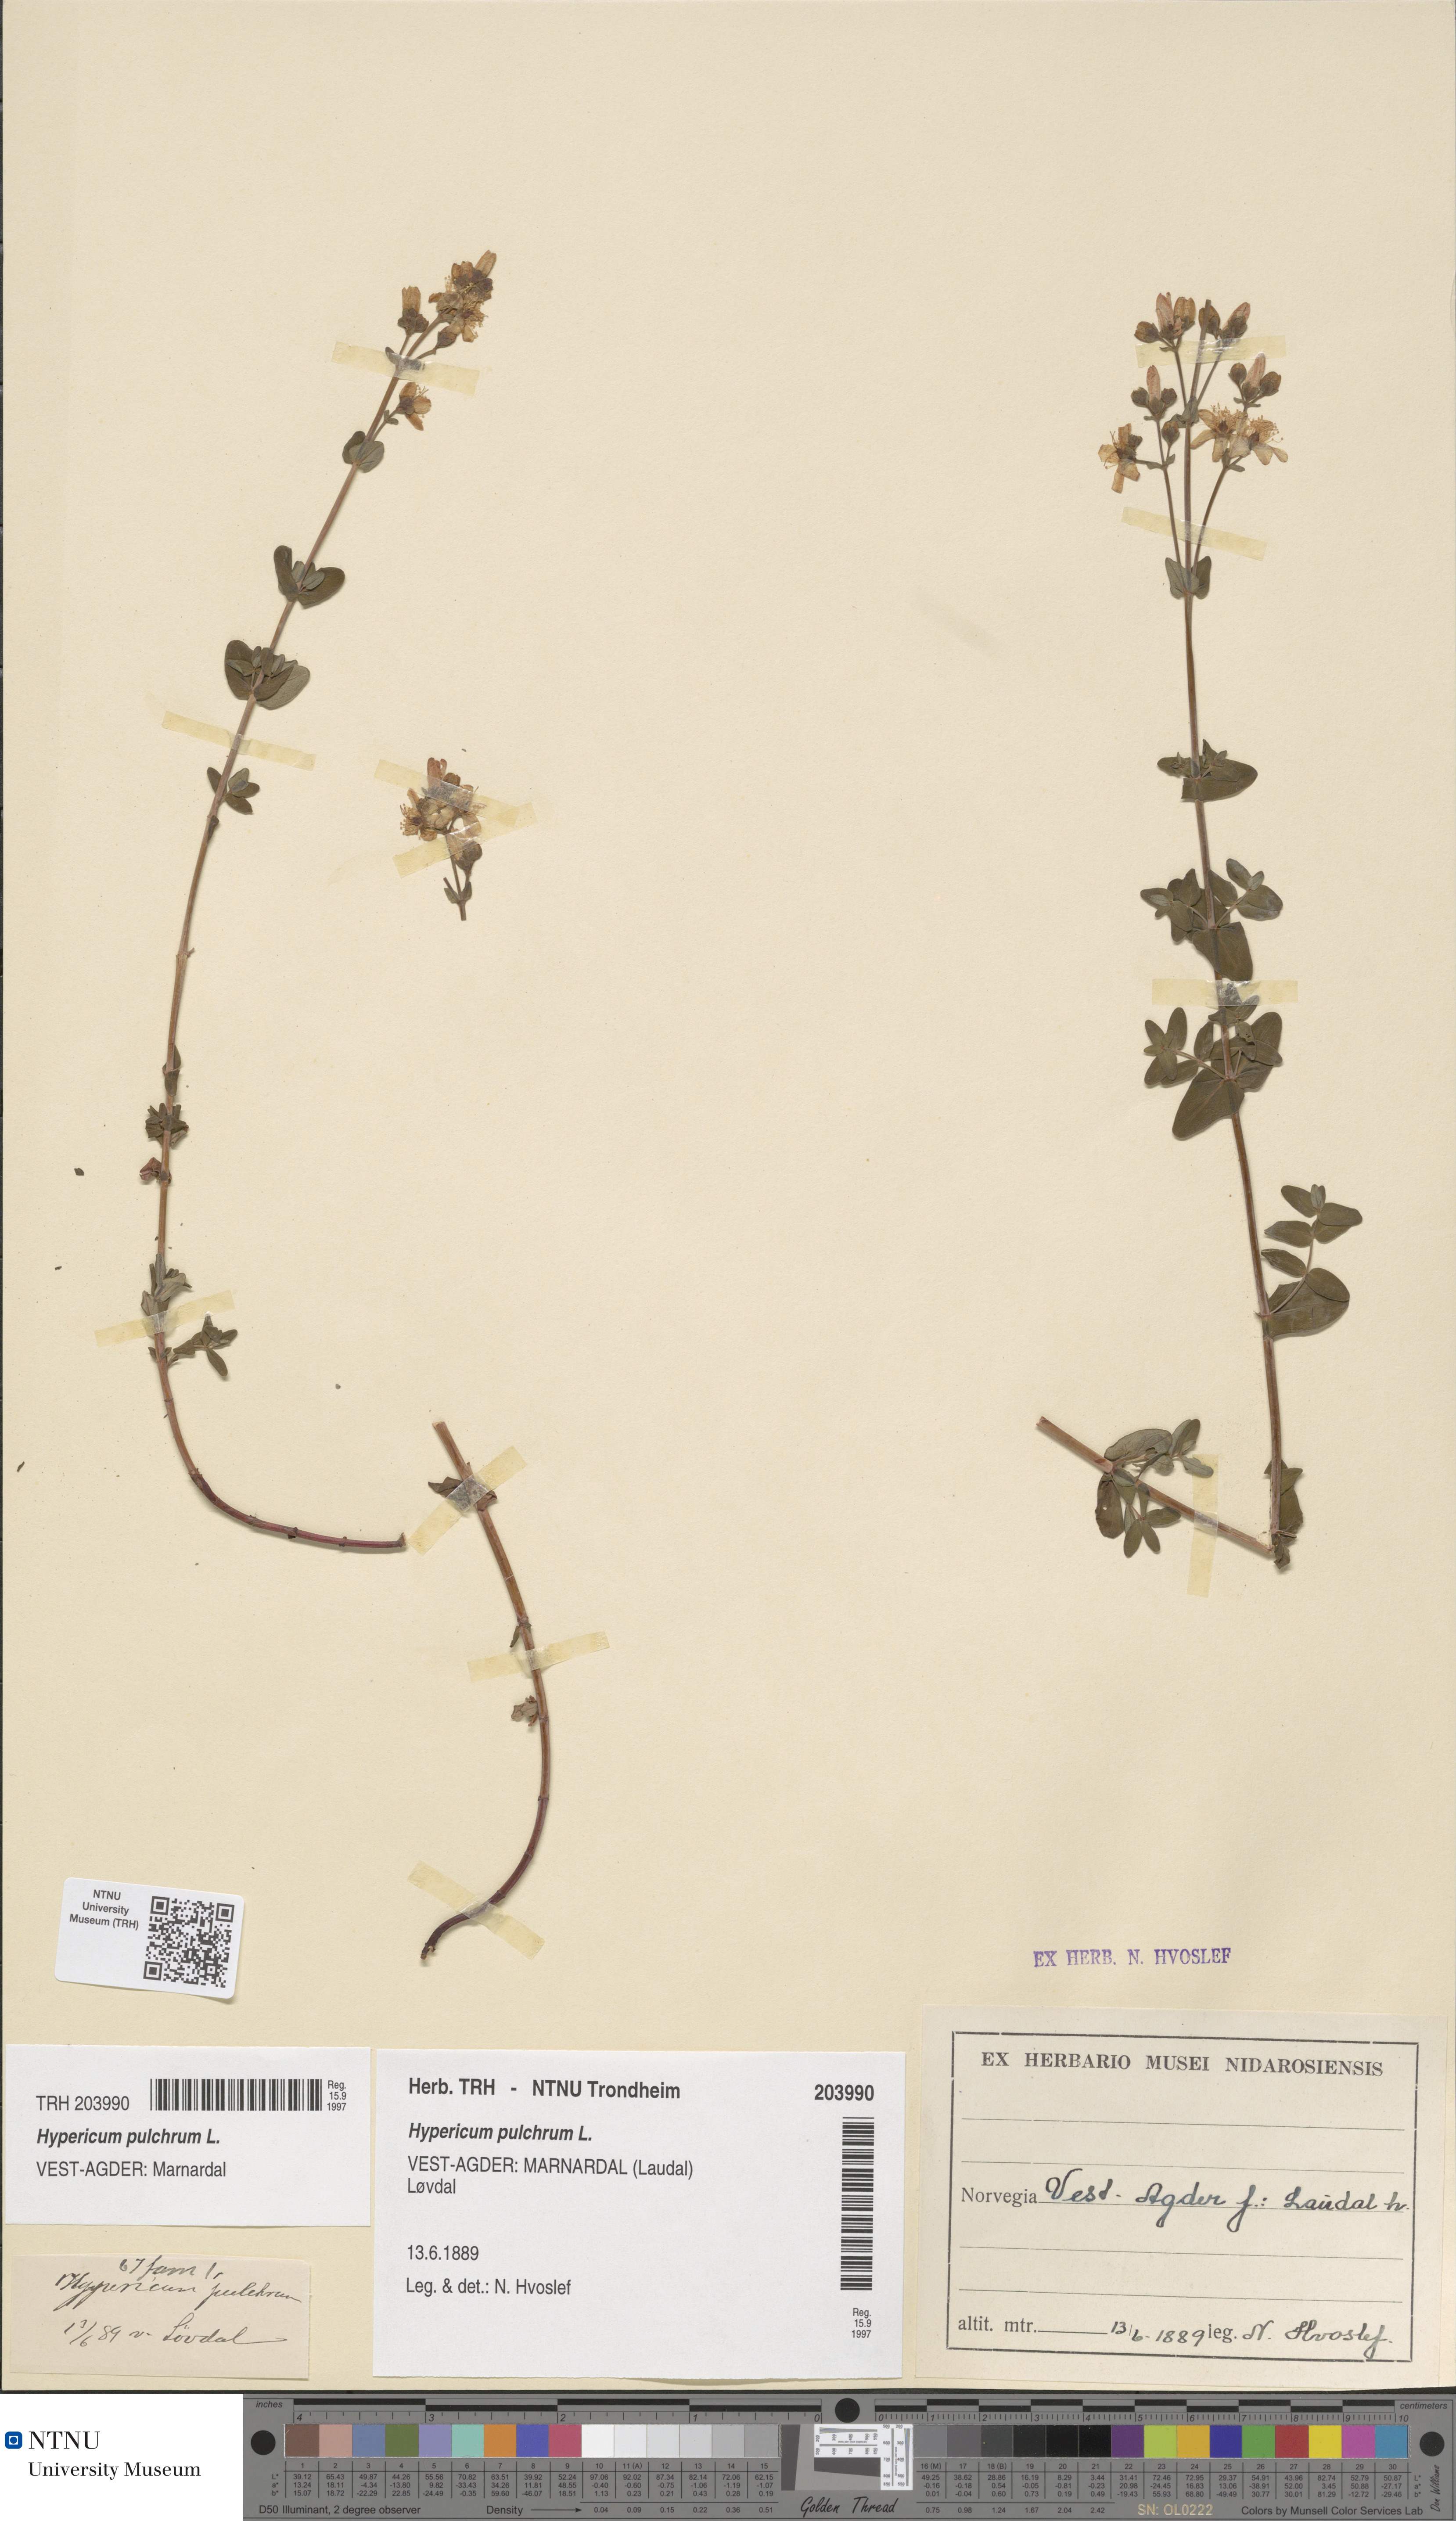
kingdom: Plantae
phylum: Tracheophyta
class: Magnoliopsida
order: Malpighiales
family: Hypericaceae
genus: Hypericum
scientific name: Hypericum pulchrum
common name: Slender st. john's-wort
